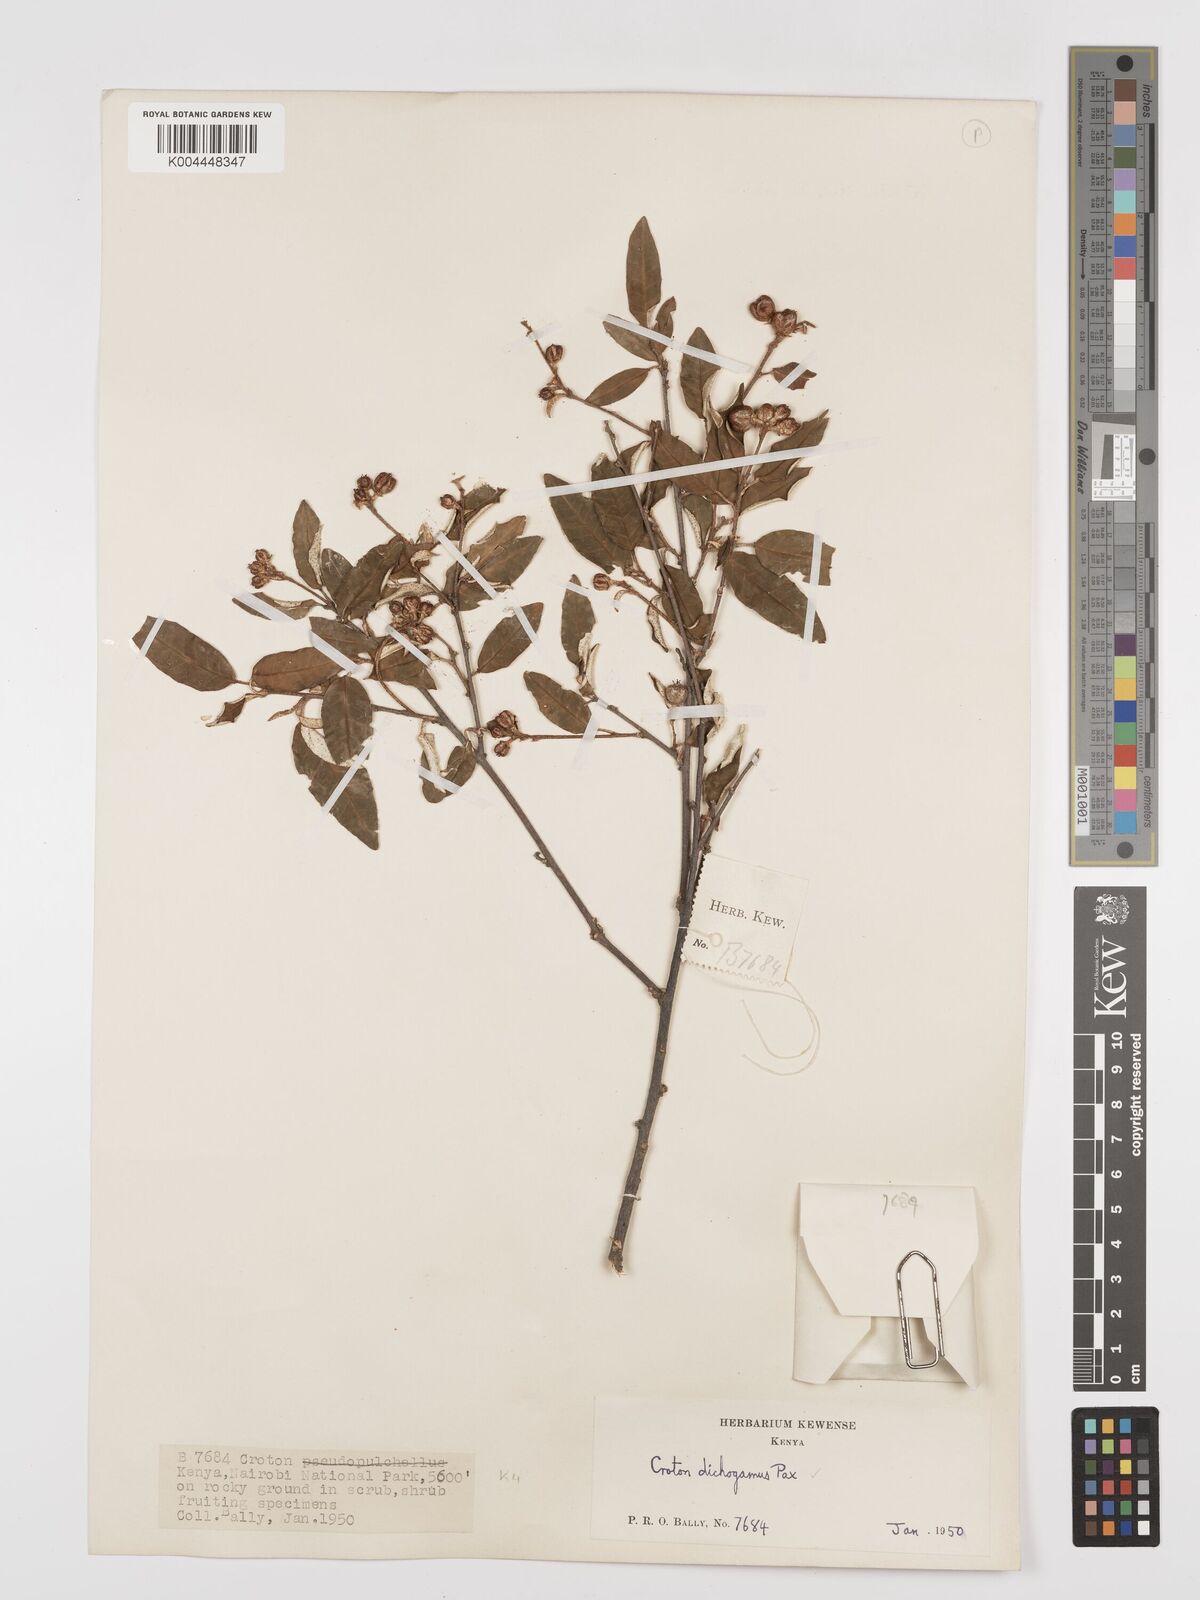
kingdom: Plantae
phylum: Tracheophyta
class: Magnoliopsida
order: Malpighiales
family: Euphorbiaceae
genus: Croton
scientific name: Croton dichogamus
